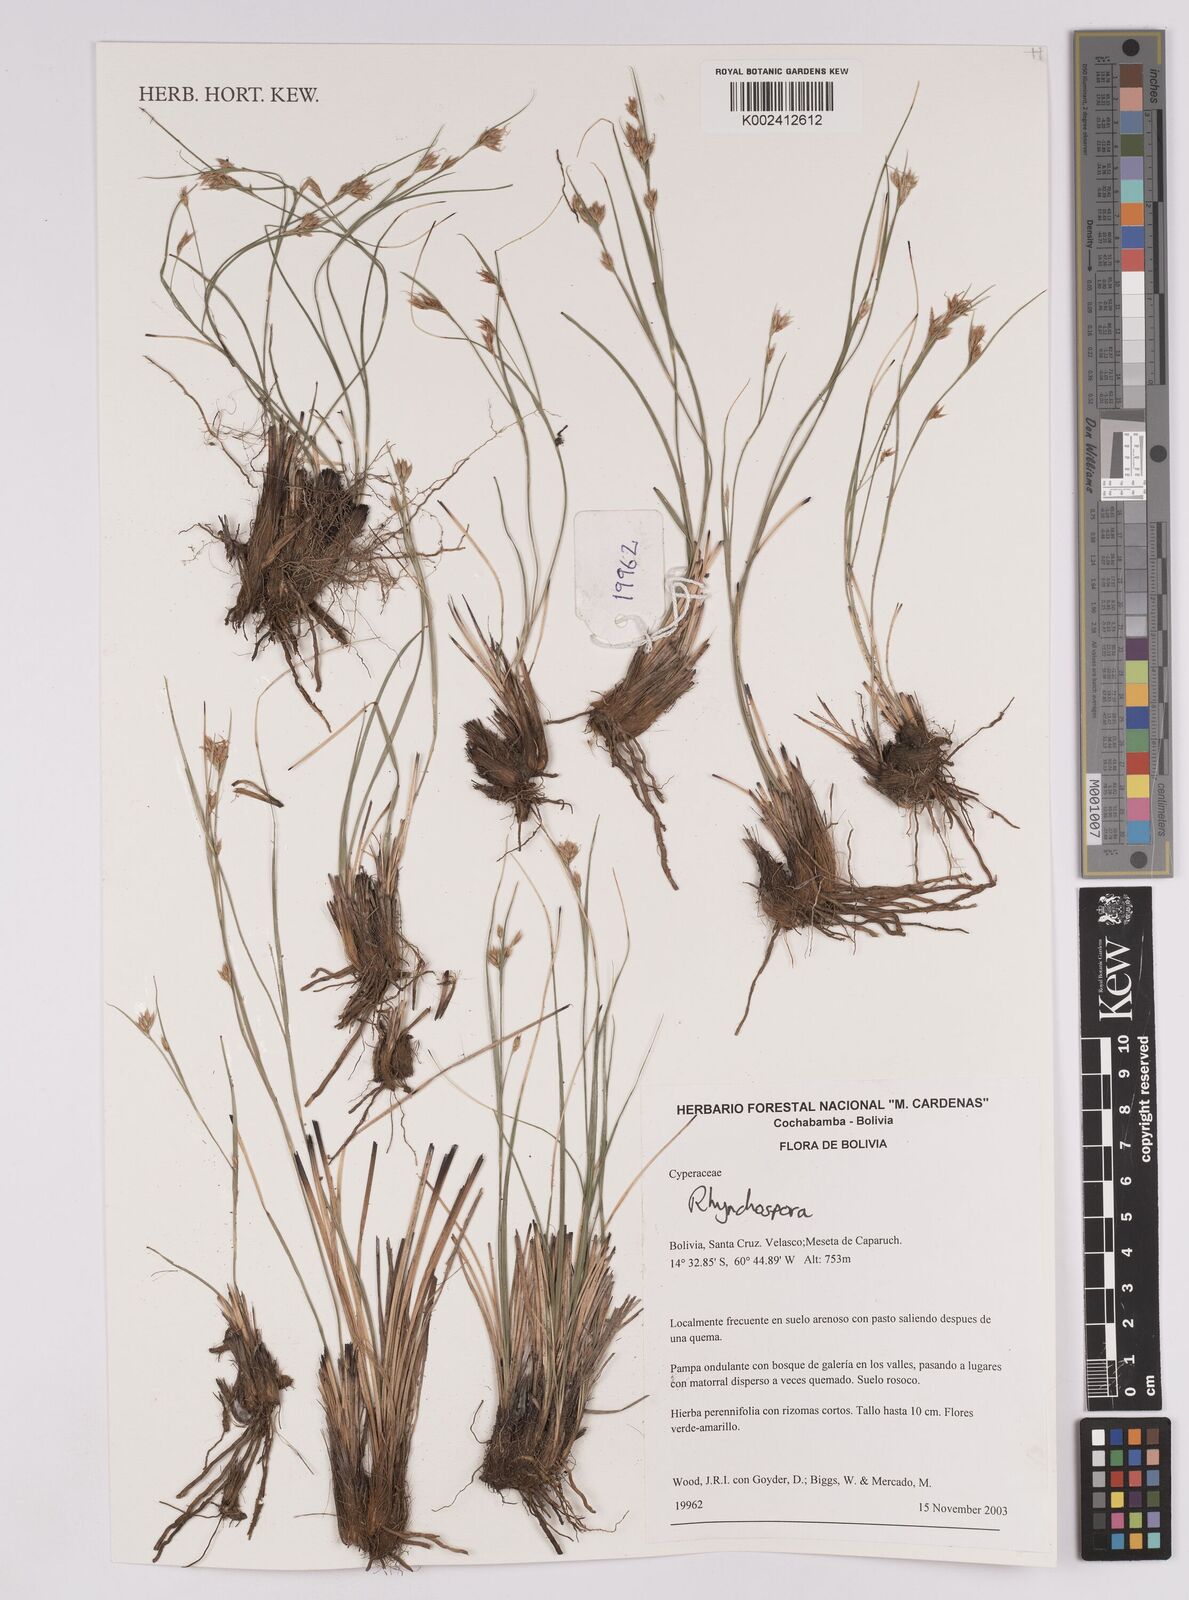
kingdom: Plantae
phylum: Tracheophyta
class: Liliopsida
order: Poales
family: Cyperaceae
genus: Rhynchospora
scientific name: Rhynchospora
